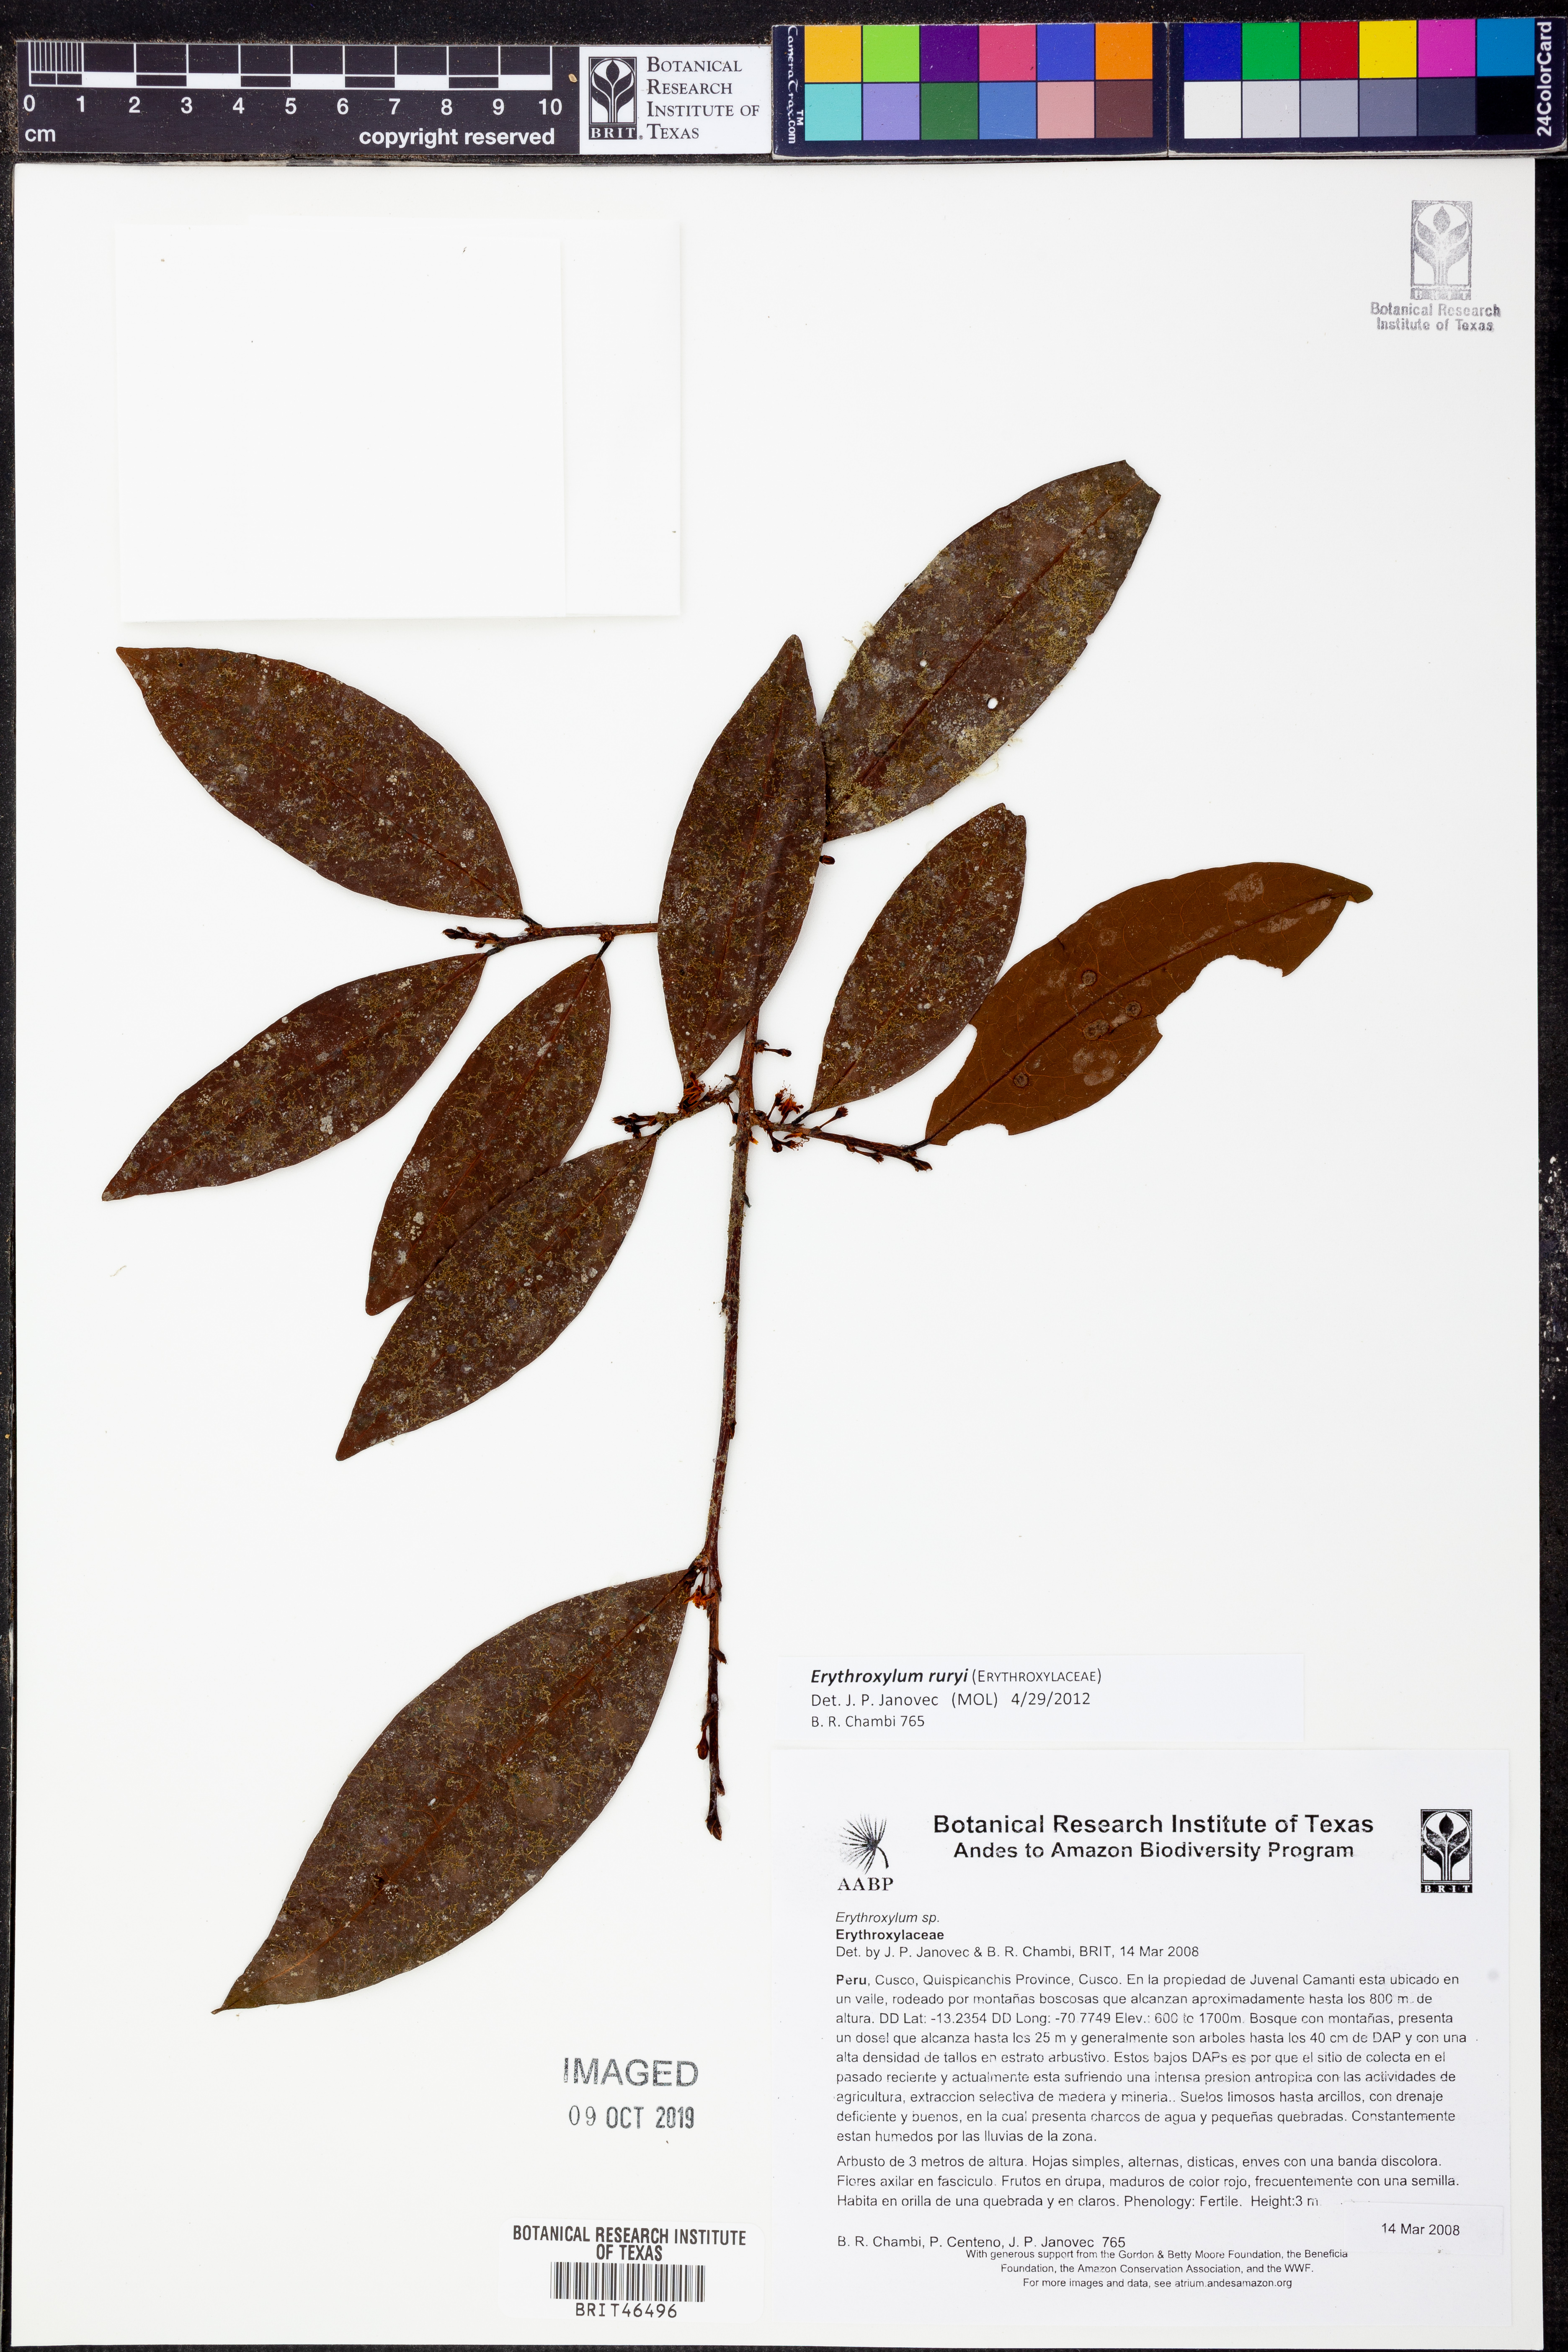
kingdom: Plantae
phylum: Tracheophyta
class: Magnoliopsida
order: Malpighiales
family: Erythroxylaceae
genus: Erythroxylum
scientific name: Erythroxylum
